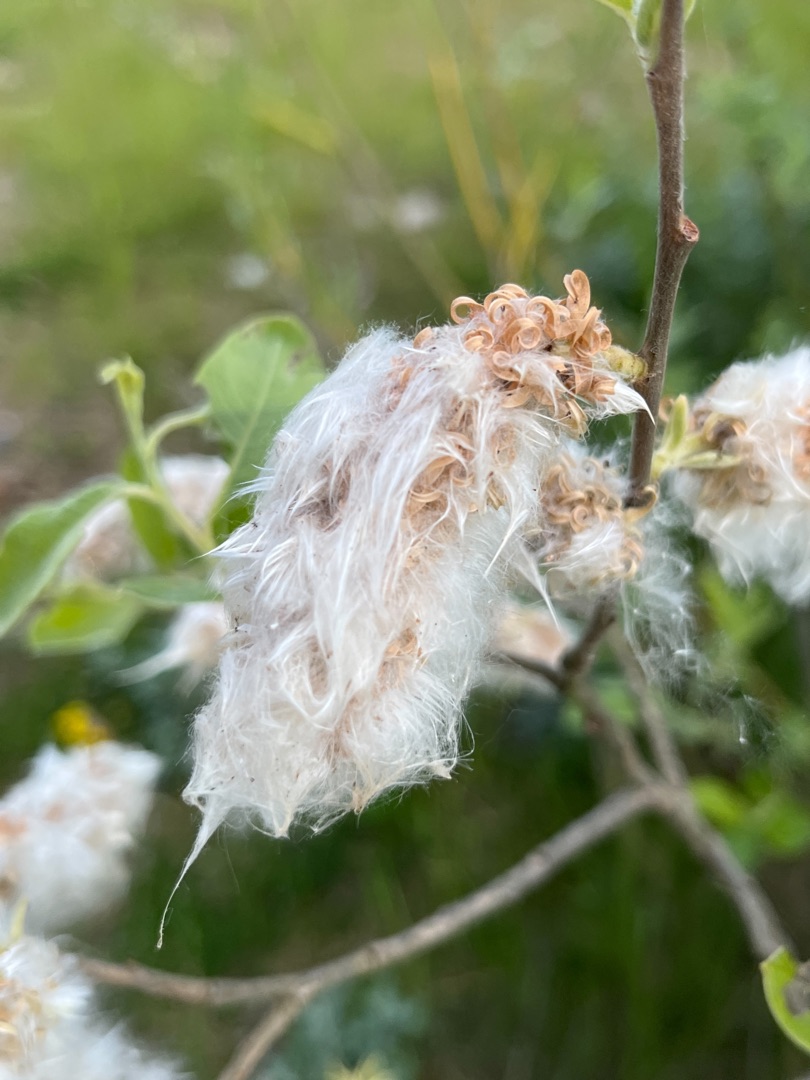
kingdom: Plantae
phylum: Tracheophyta
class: Magnoliopsida
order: Malpighiales
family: Salicaceae
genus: Salix
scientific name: Salix
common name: Pileslægten
